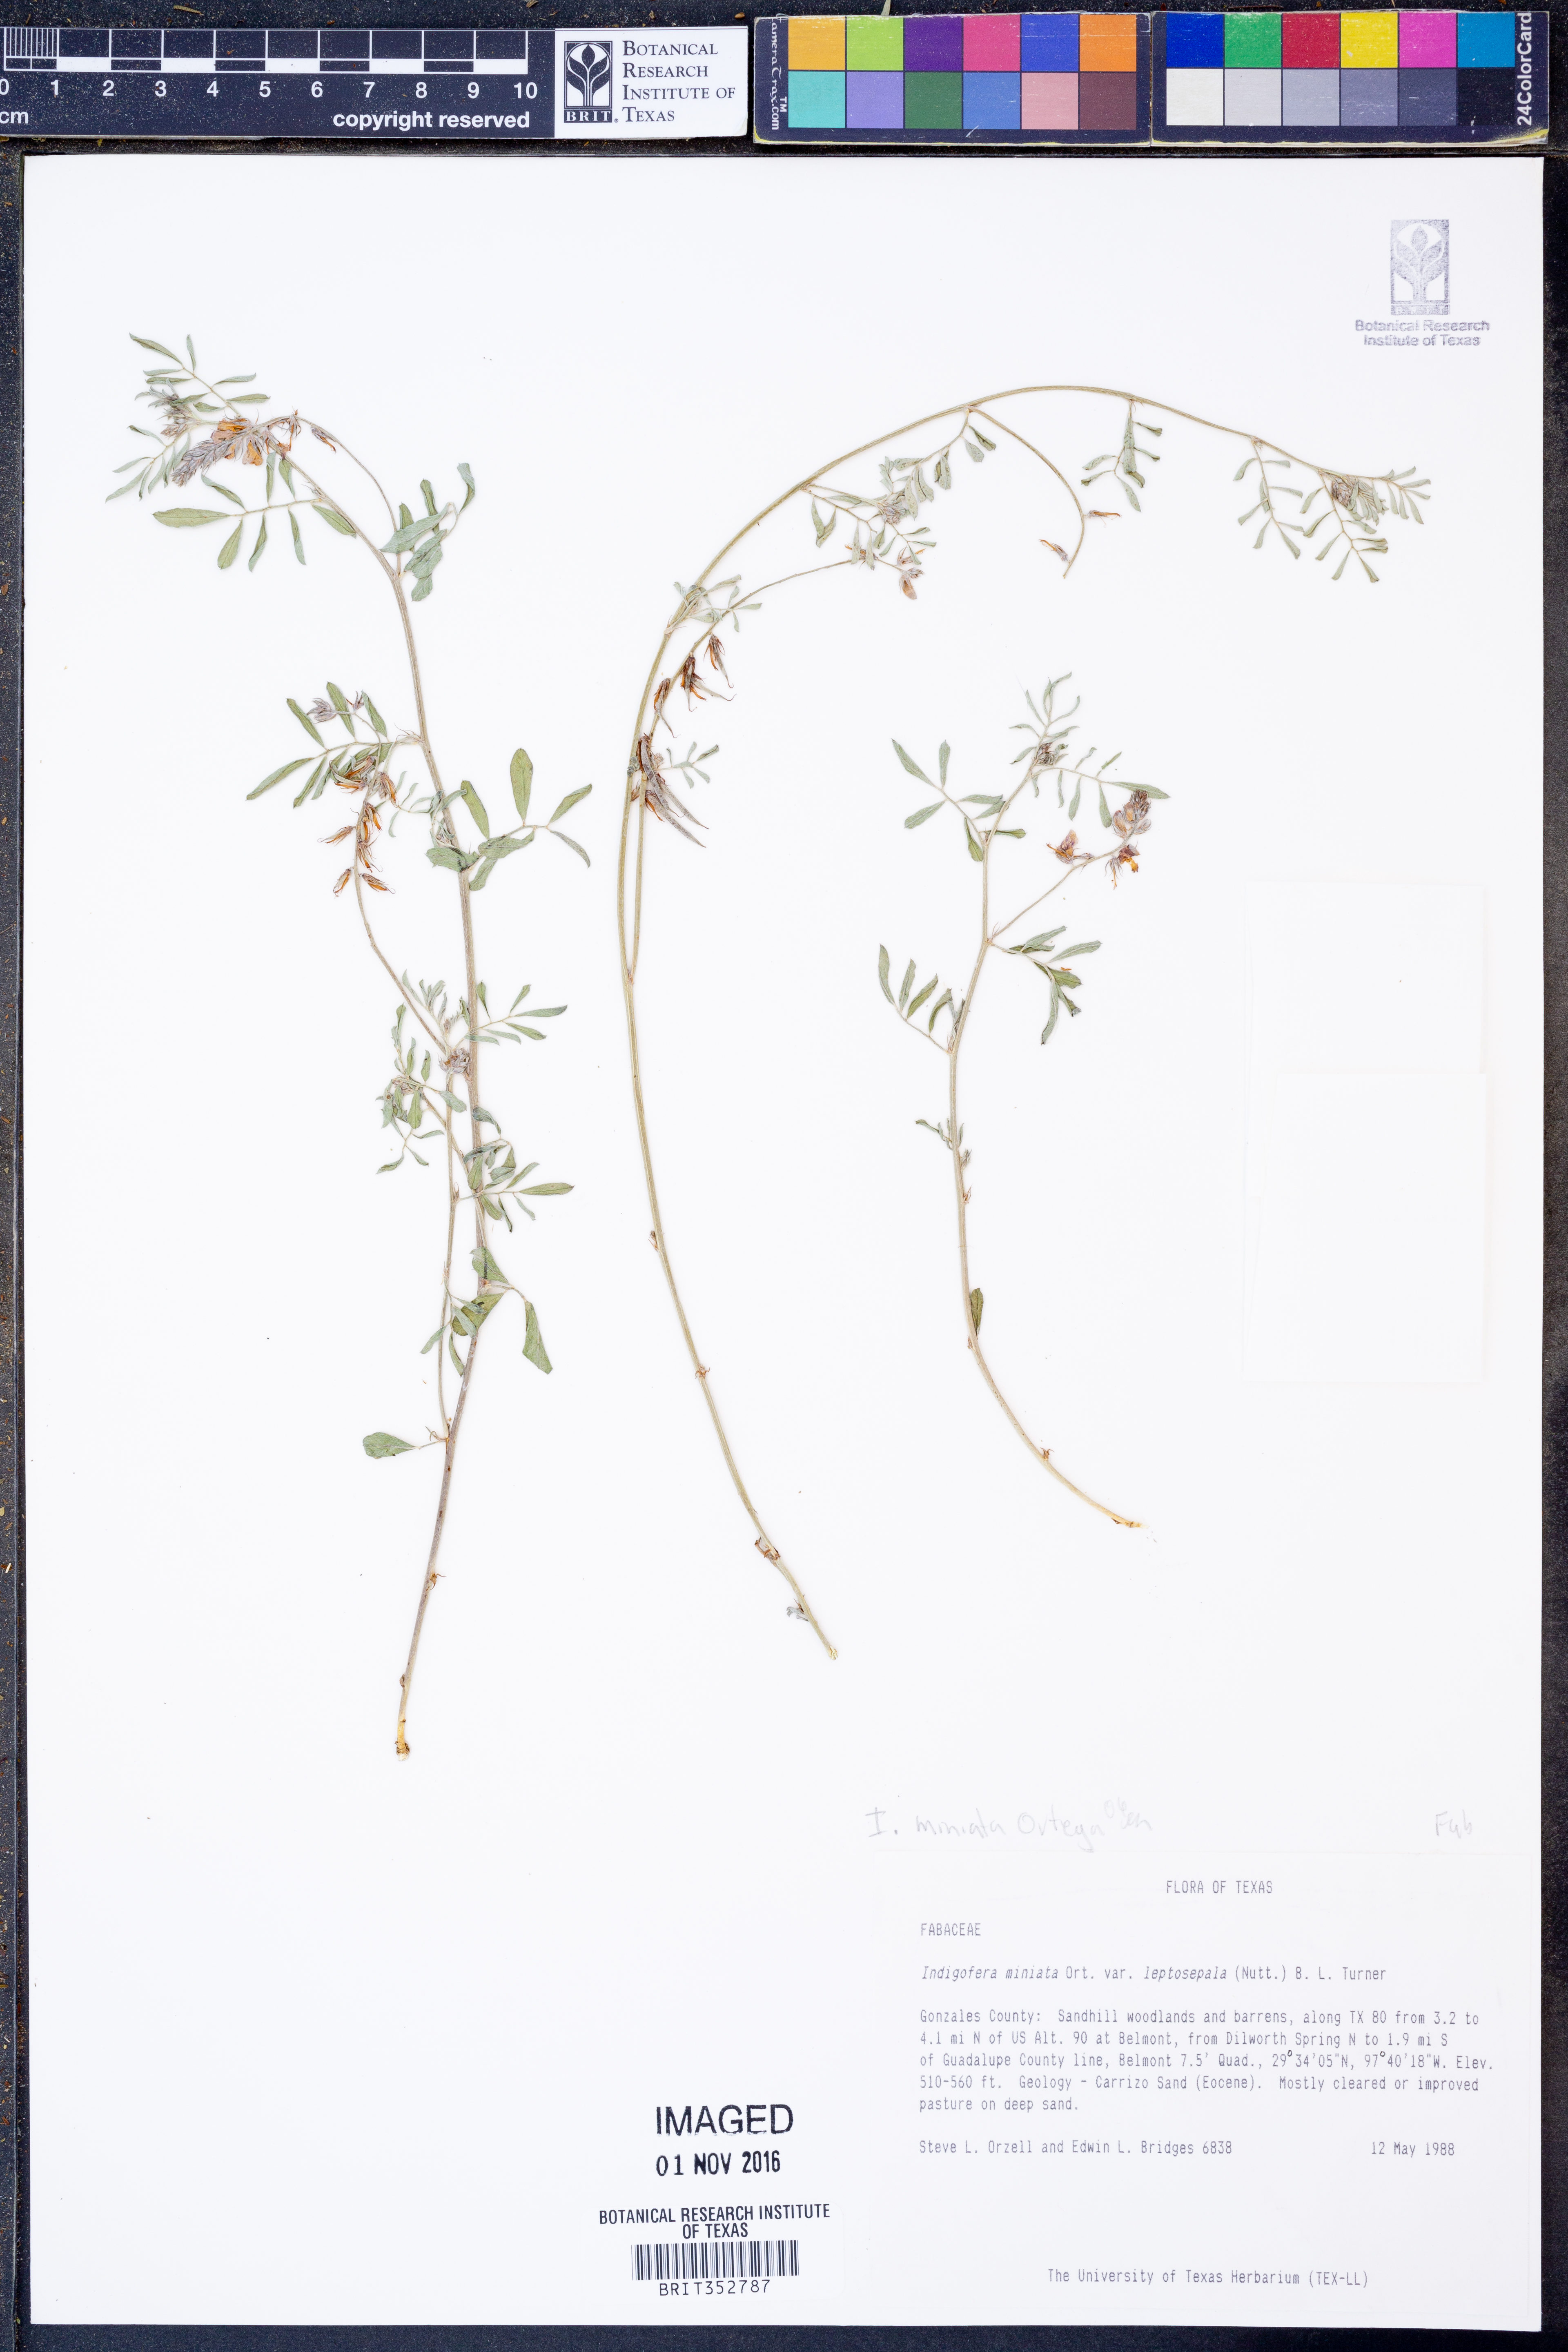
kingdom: Plantae
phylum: Tracheophyta
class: Magnoliopsida
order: Fabales
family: Fabaceae
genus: Indigofera
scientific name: Indigofera miniata
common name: Coast indigo
